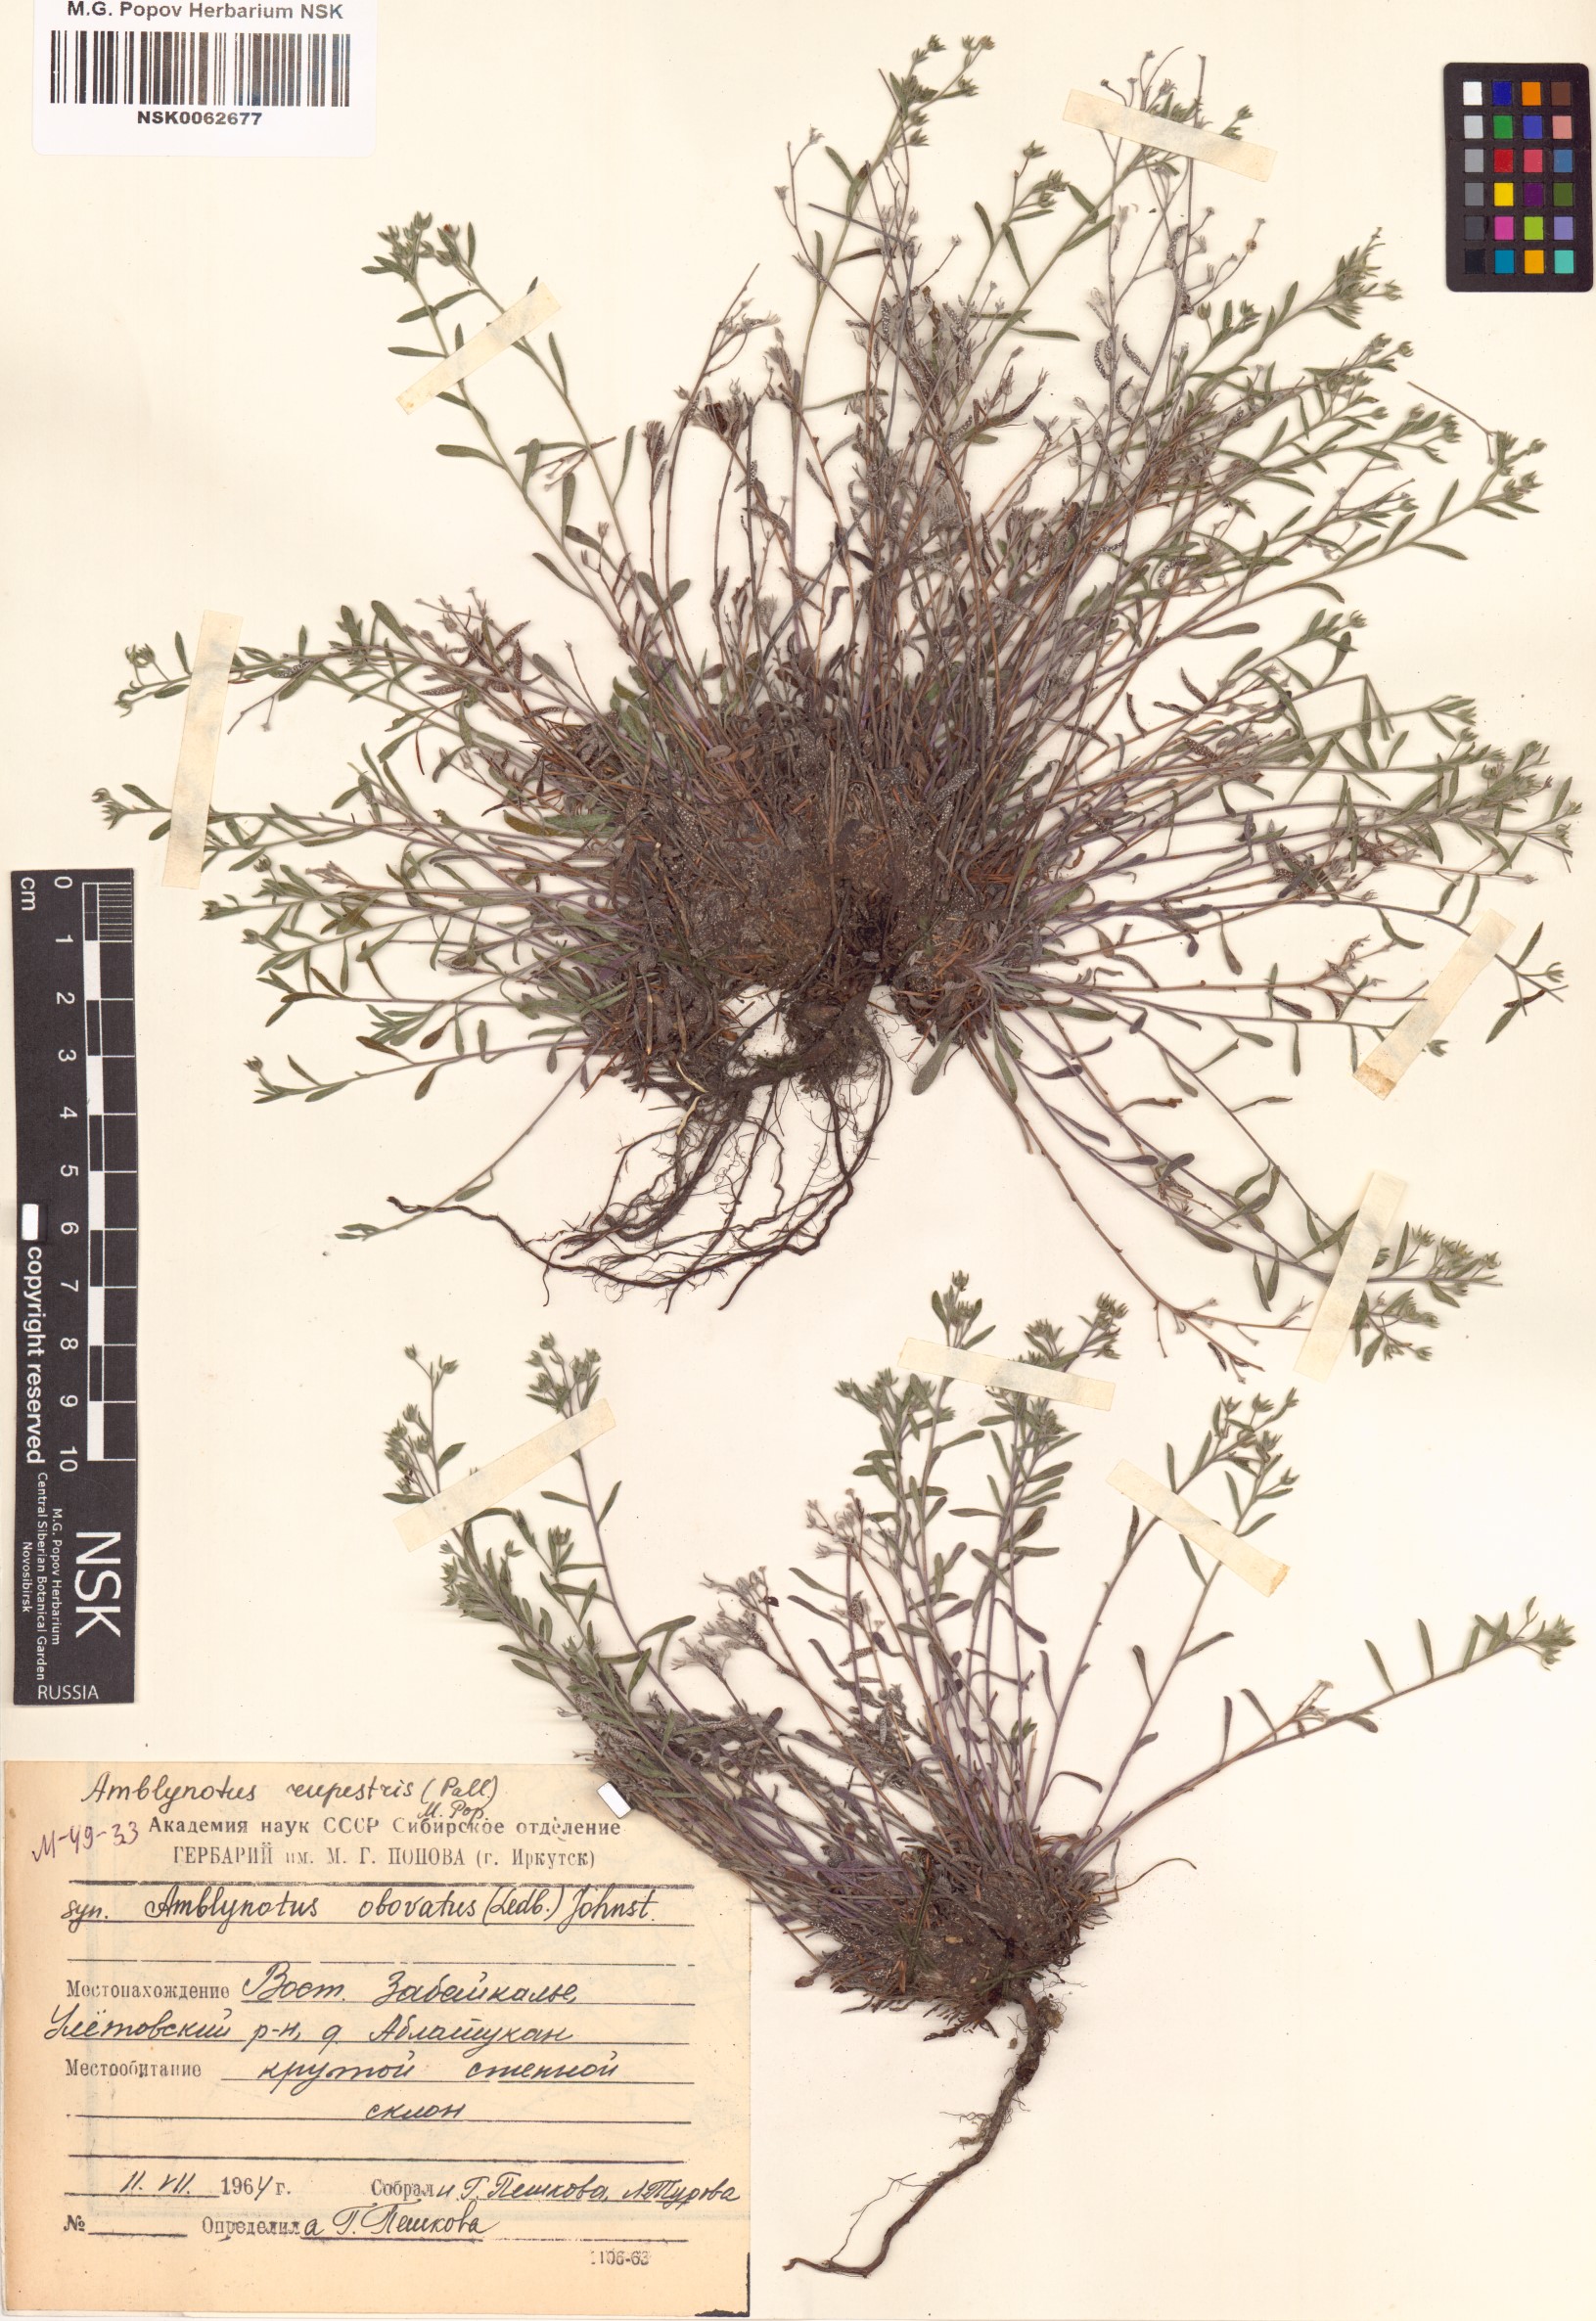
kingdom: Plantae
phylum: Tracheophyta
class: Magnoliopsida
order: Boraginales
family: Boraginaceae
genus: Eritrichium
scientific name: Eritrichium rupestre
